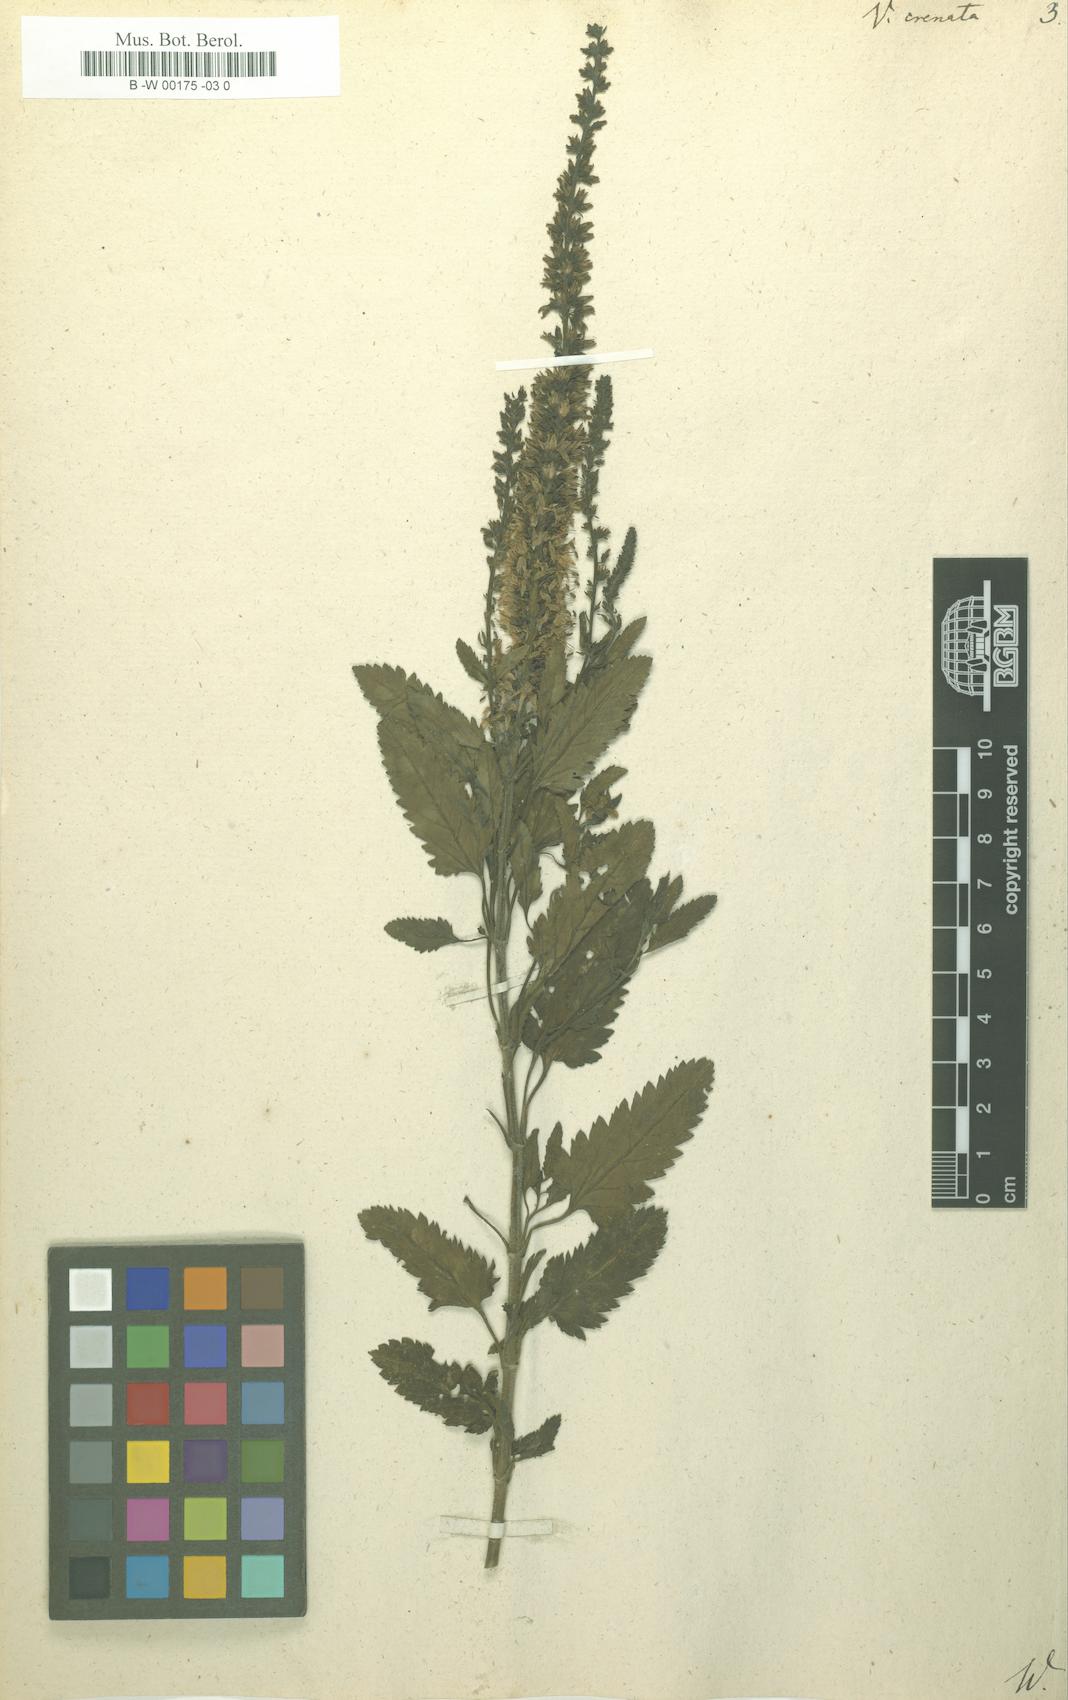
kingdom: Plantae
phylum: Tracheophyta
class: Magnoliopsida
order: Lamiales
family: Plantaginaceae
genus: Veronica
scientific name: Veronica crenata
